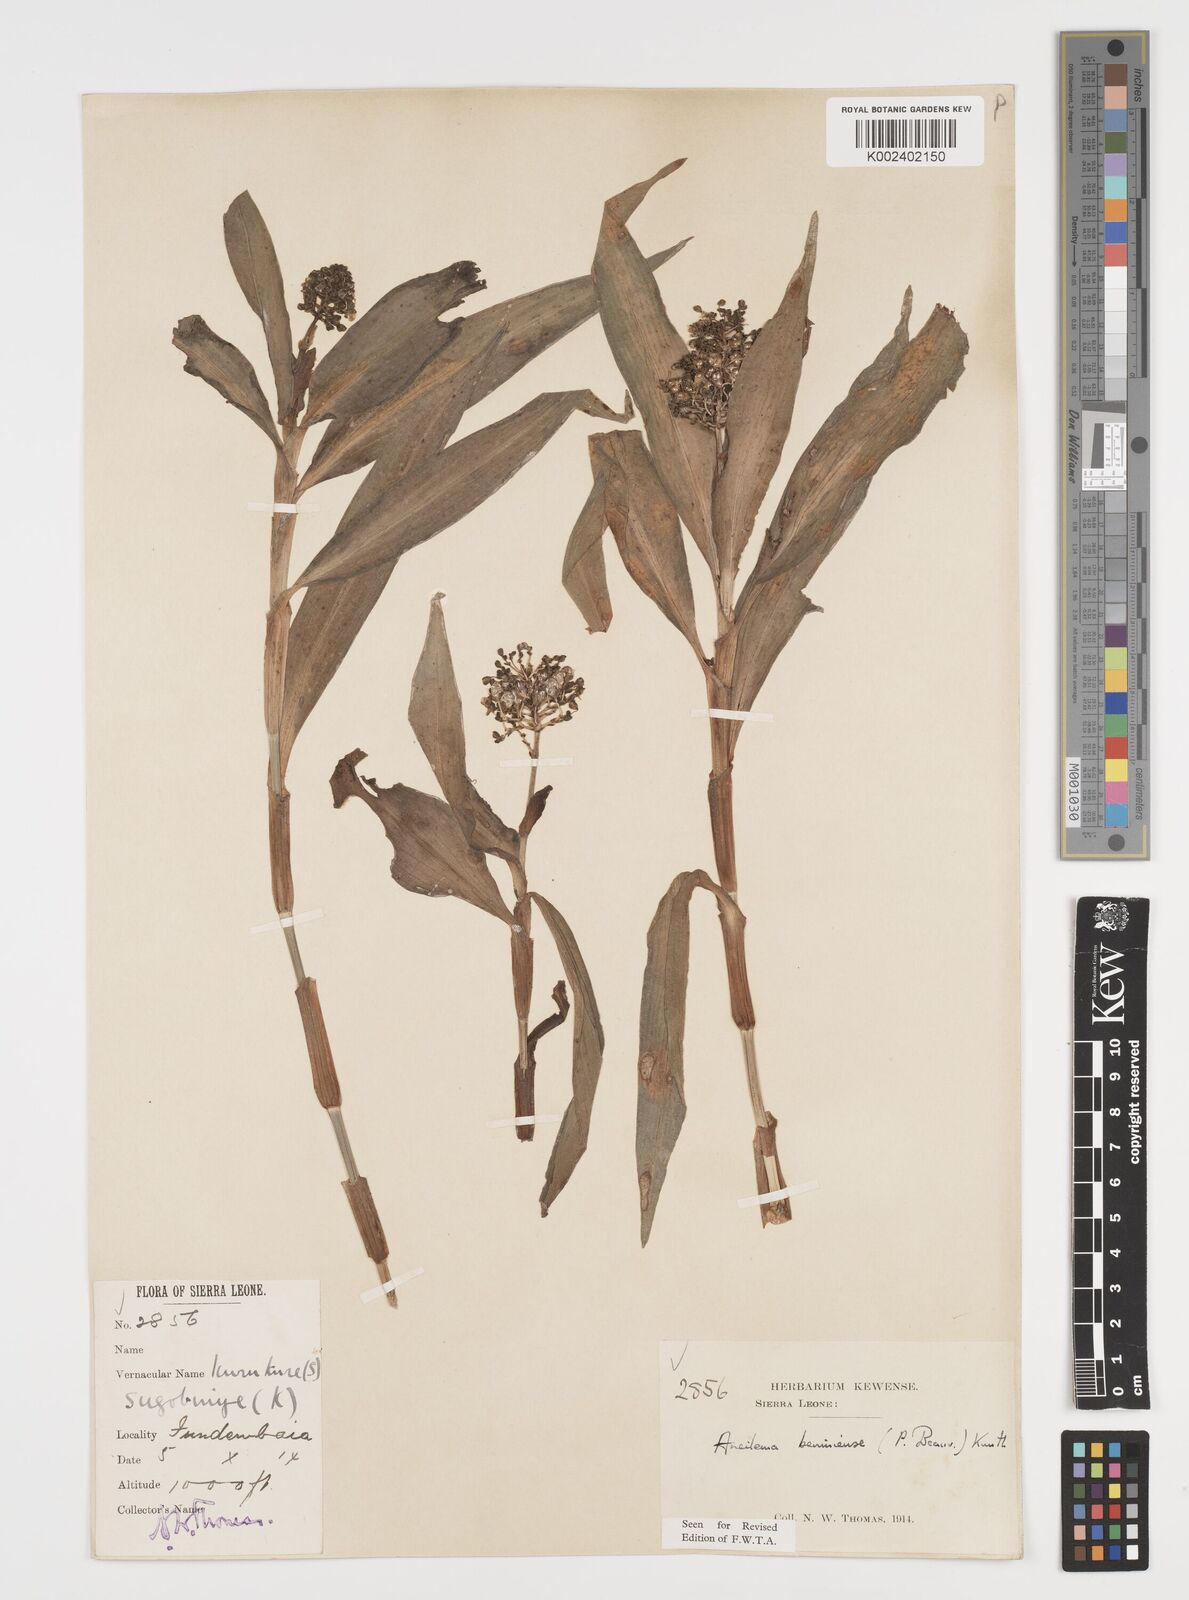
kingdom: Plantae
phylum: Tracheophyta
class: Liliopsida
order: Commelinales
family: Commelinaceae
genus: Aneilema
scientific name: Aneilema beniniense
